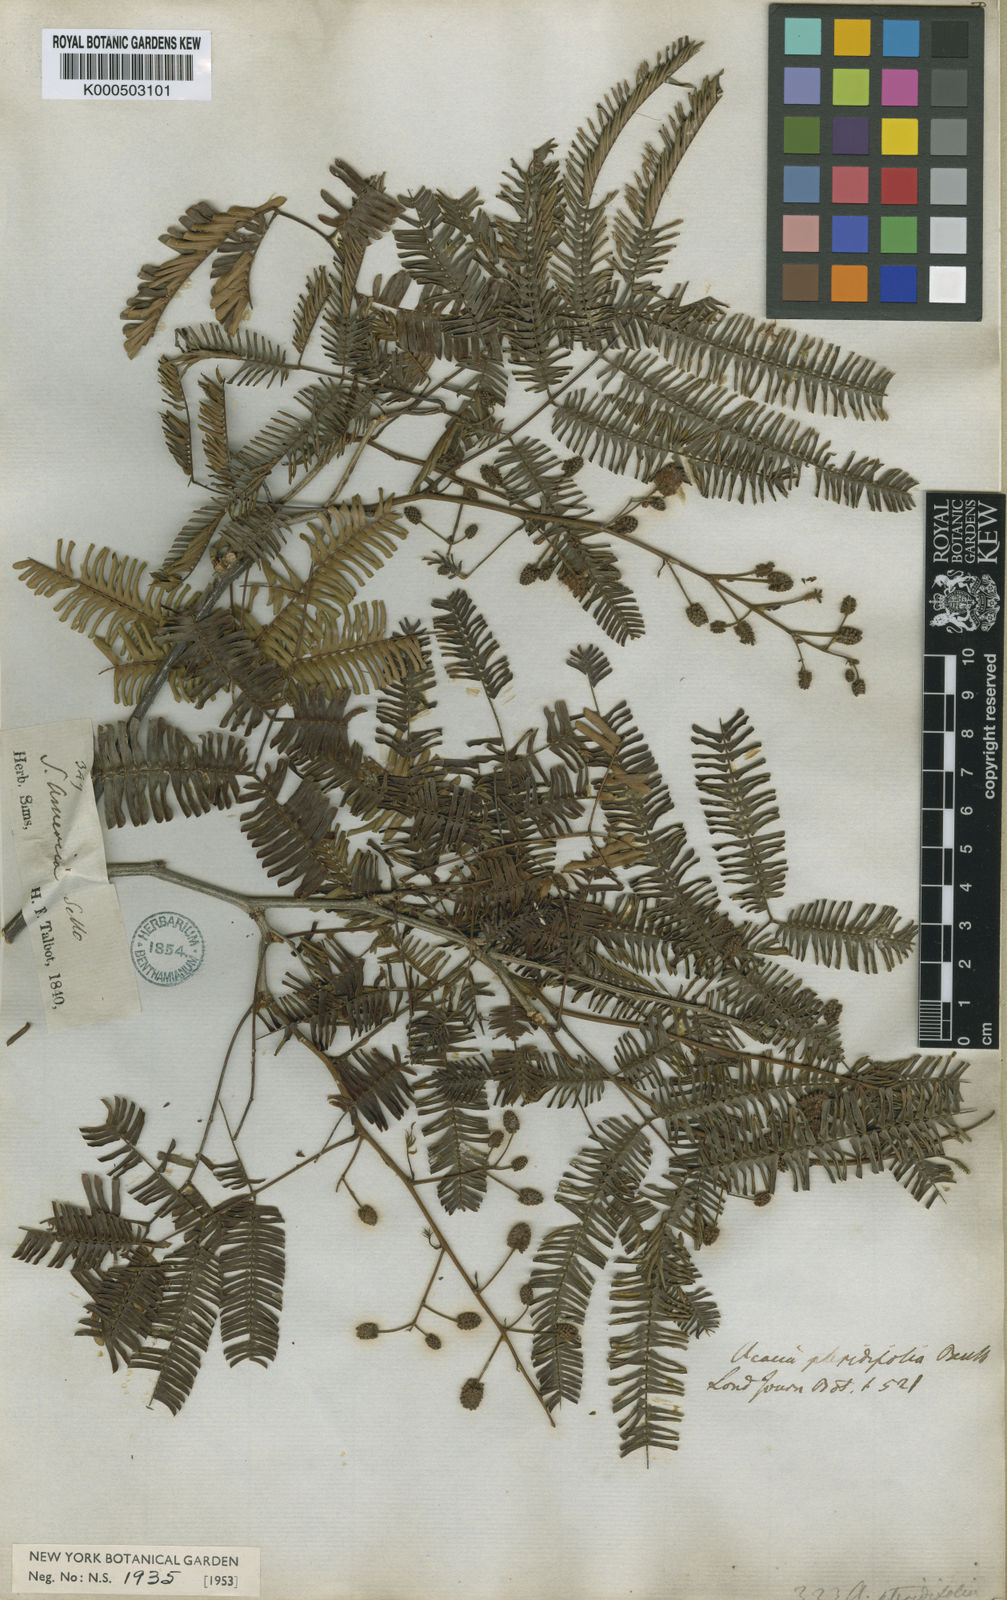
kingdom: Plantae
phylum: Tracheophyta
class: Magnoliopsida
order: Fabales
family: Fabaceae
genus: Senegalia
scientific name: Senegalia pteridifolia
